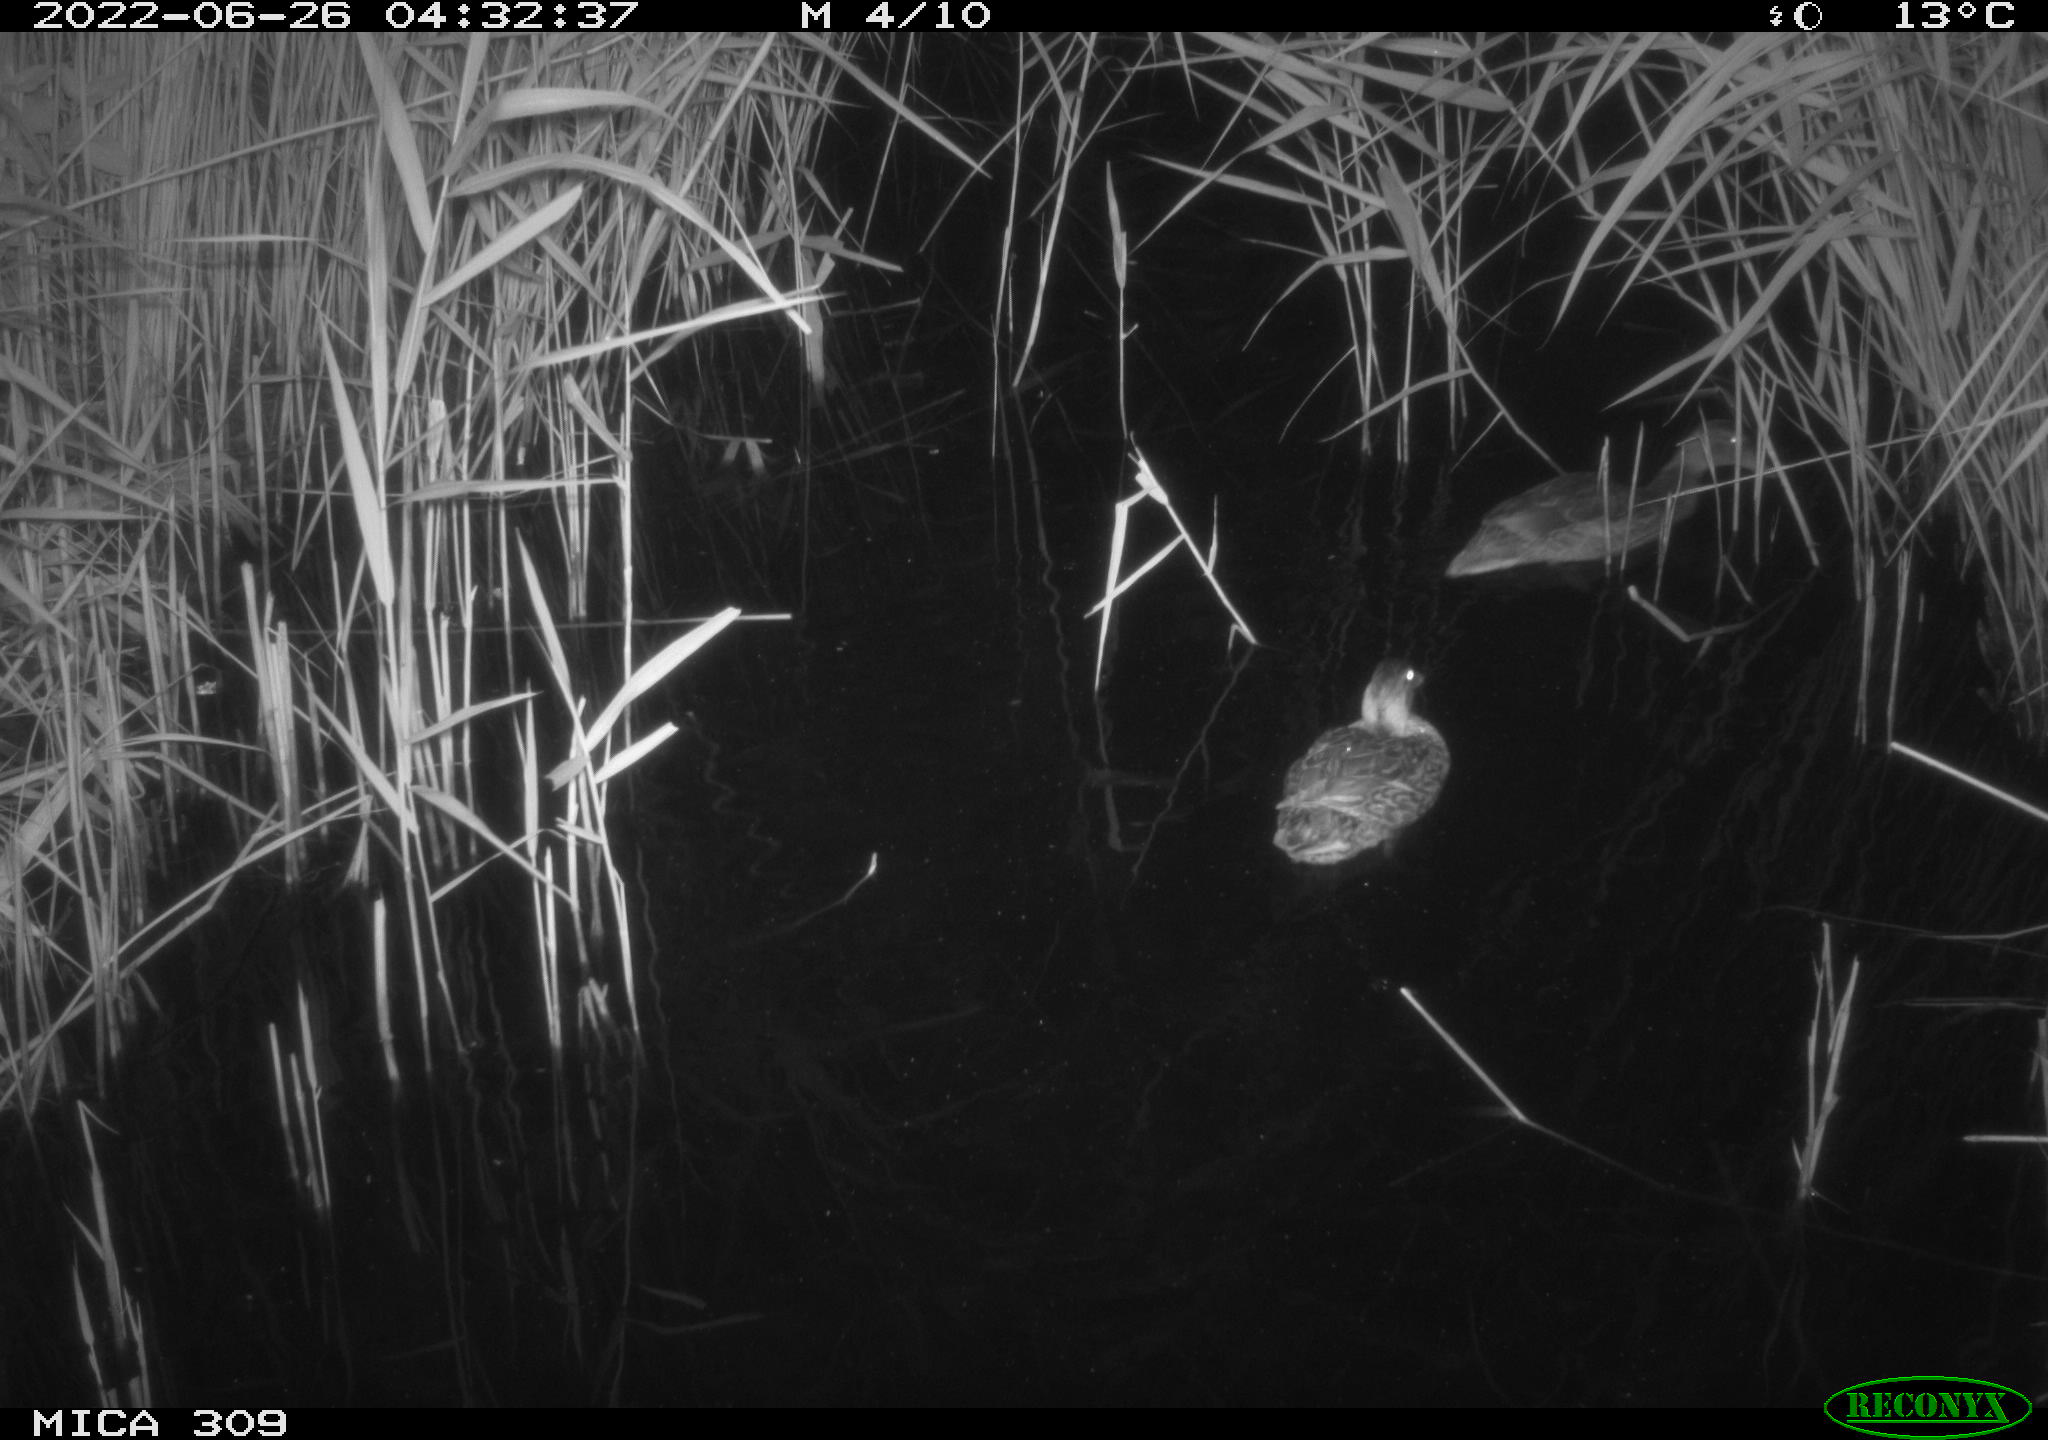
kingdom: Animalia
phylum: Chordata
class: Aves
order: Anseriformes
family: Anatidae
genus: Anas
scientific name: Anas platyrhynchos
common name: Mallard
